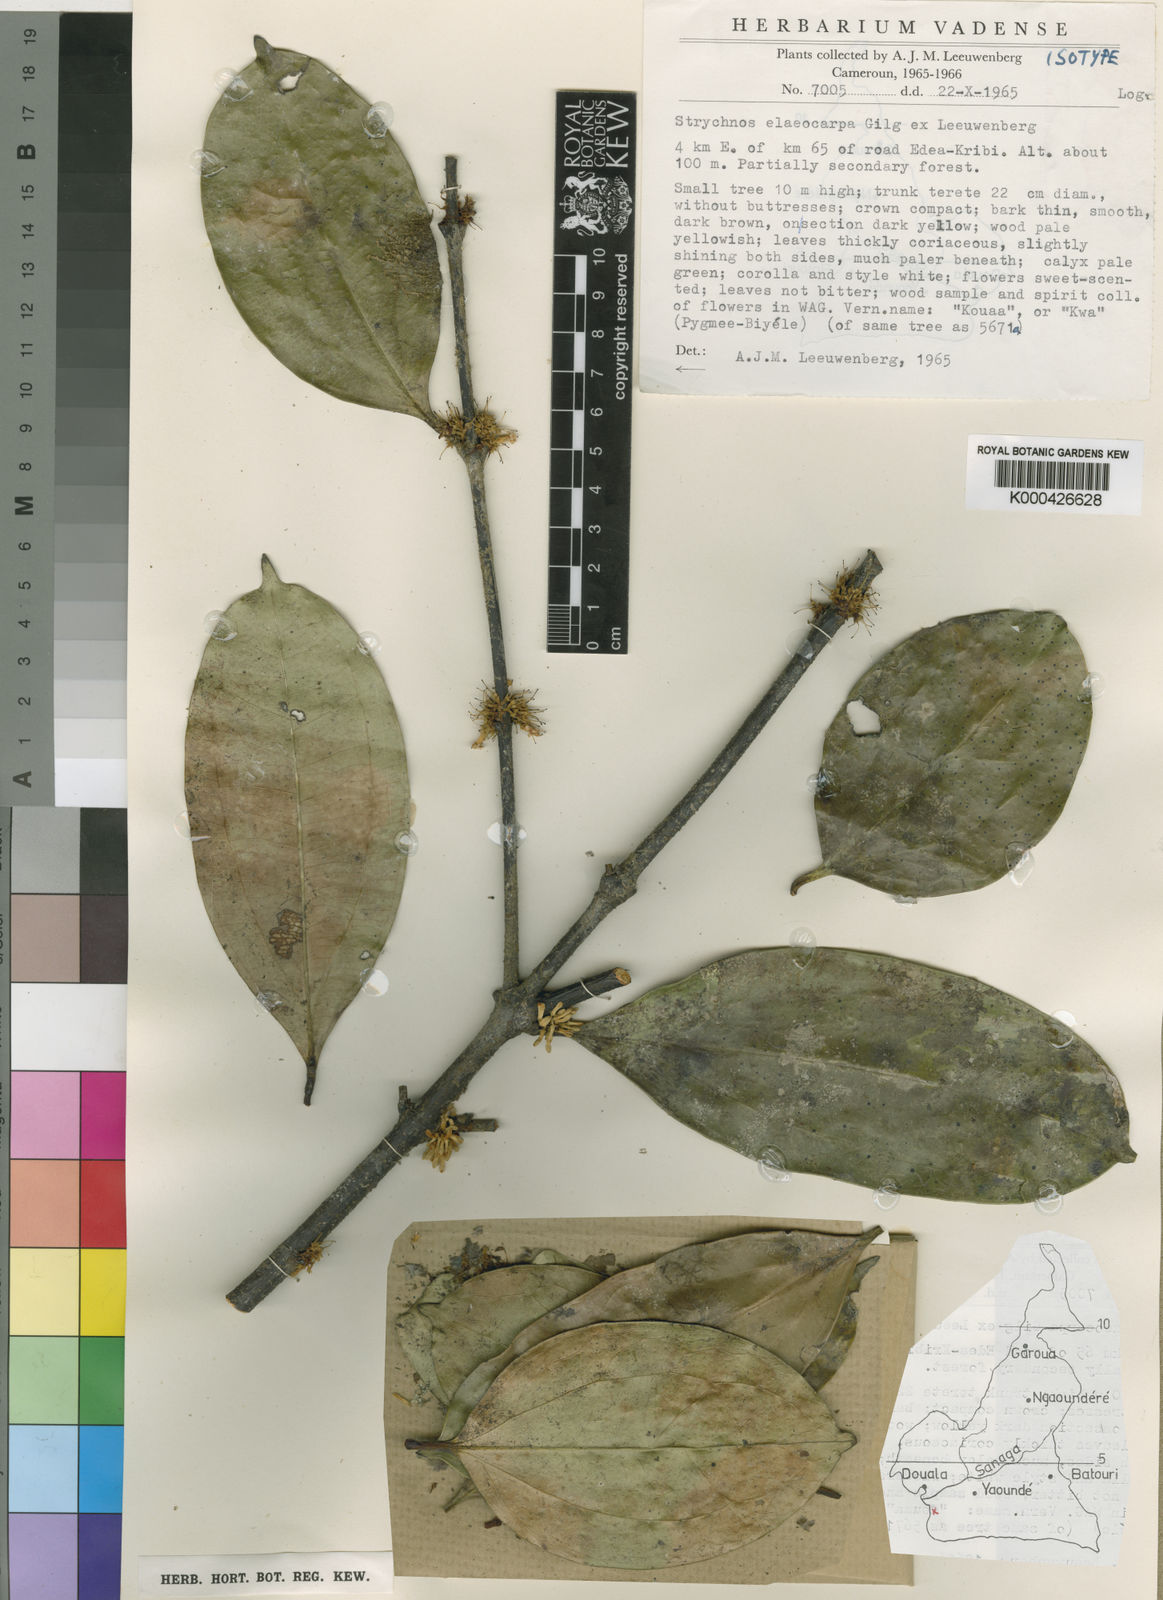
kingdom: Plantae
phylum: Tracheophyta
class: Magnoliopsida
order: Gentianales
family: Loganiaceae
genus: Strychnos
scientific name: Strychnos elaeocarpa
